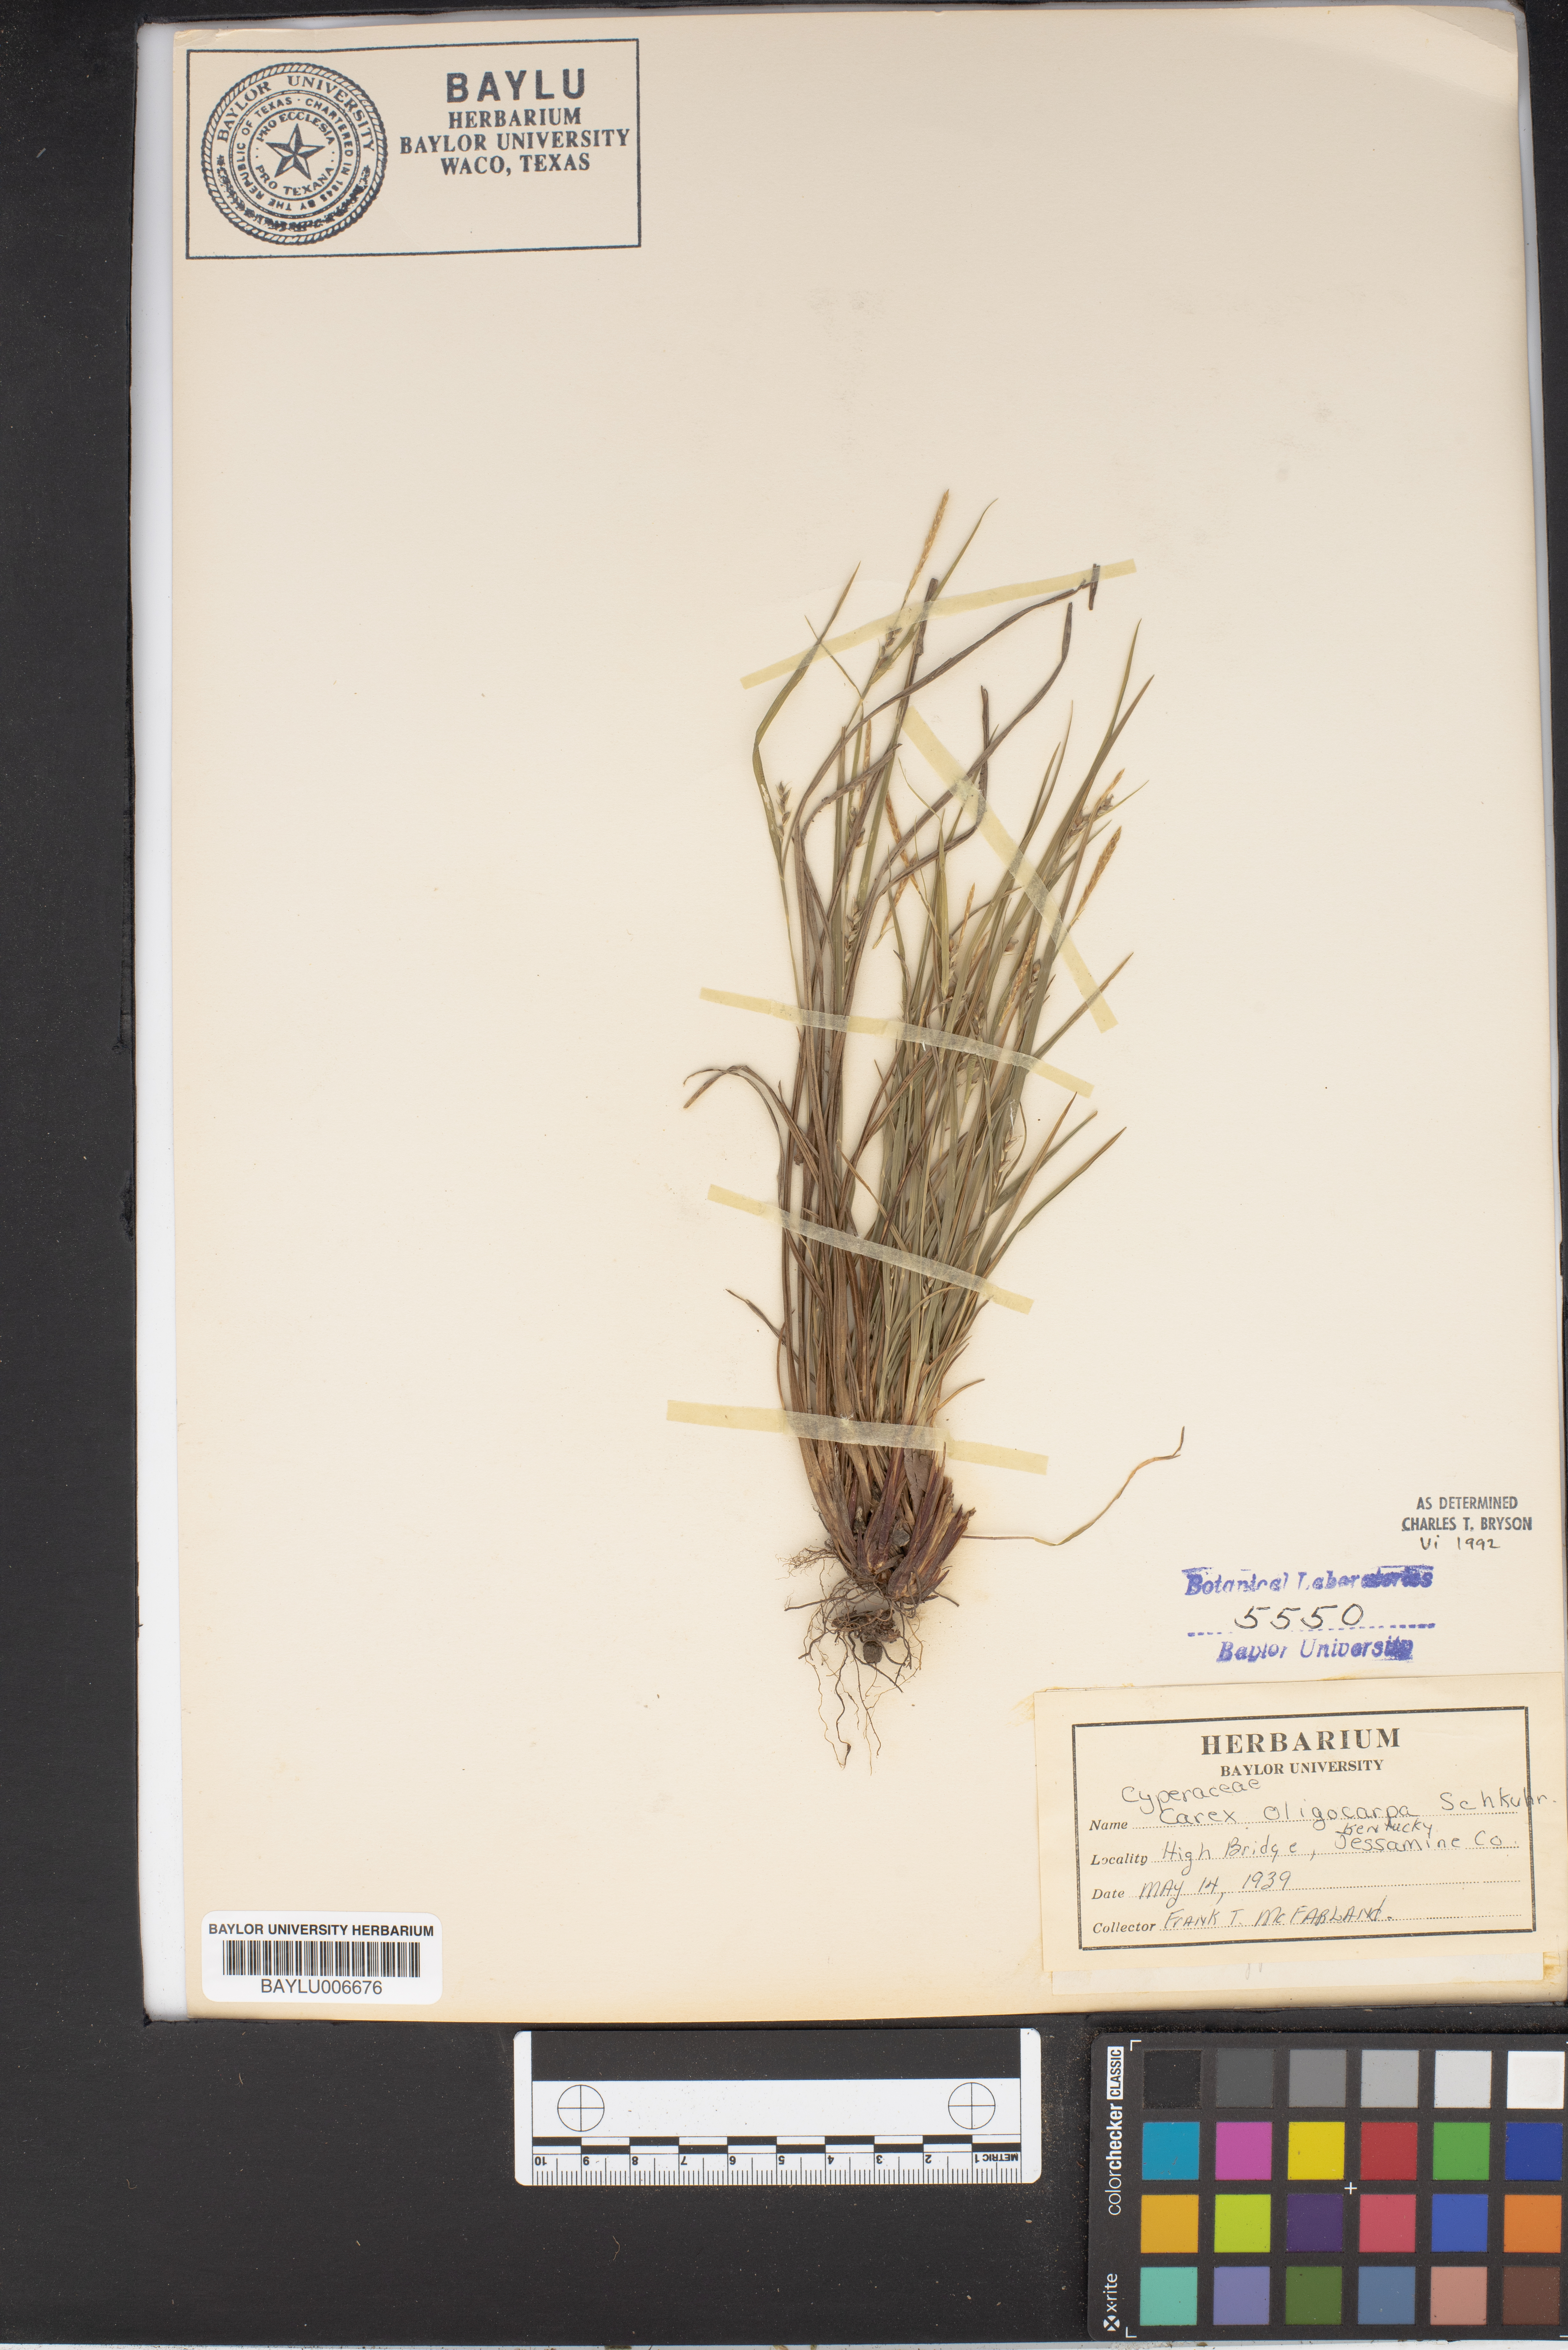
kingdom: Plantae
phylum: Tracheophyta
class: Liliopsida
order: Poales
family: Cyperaceae
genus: Carex
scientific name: Carex oligocarpa
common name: Eastern few-fruited sedge
